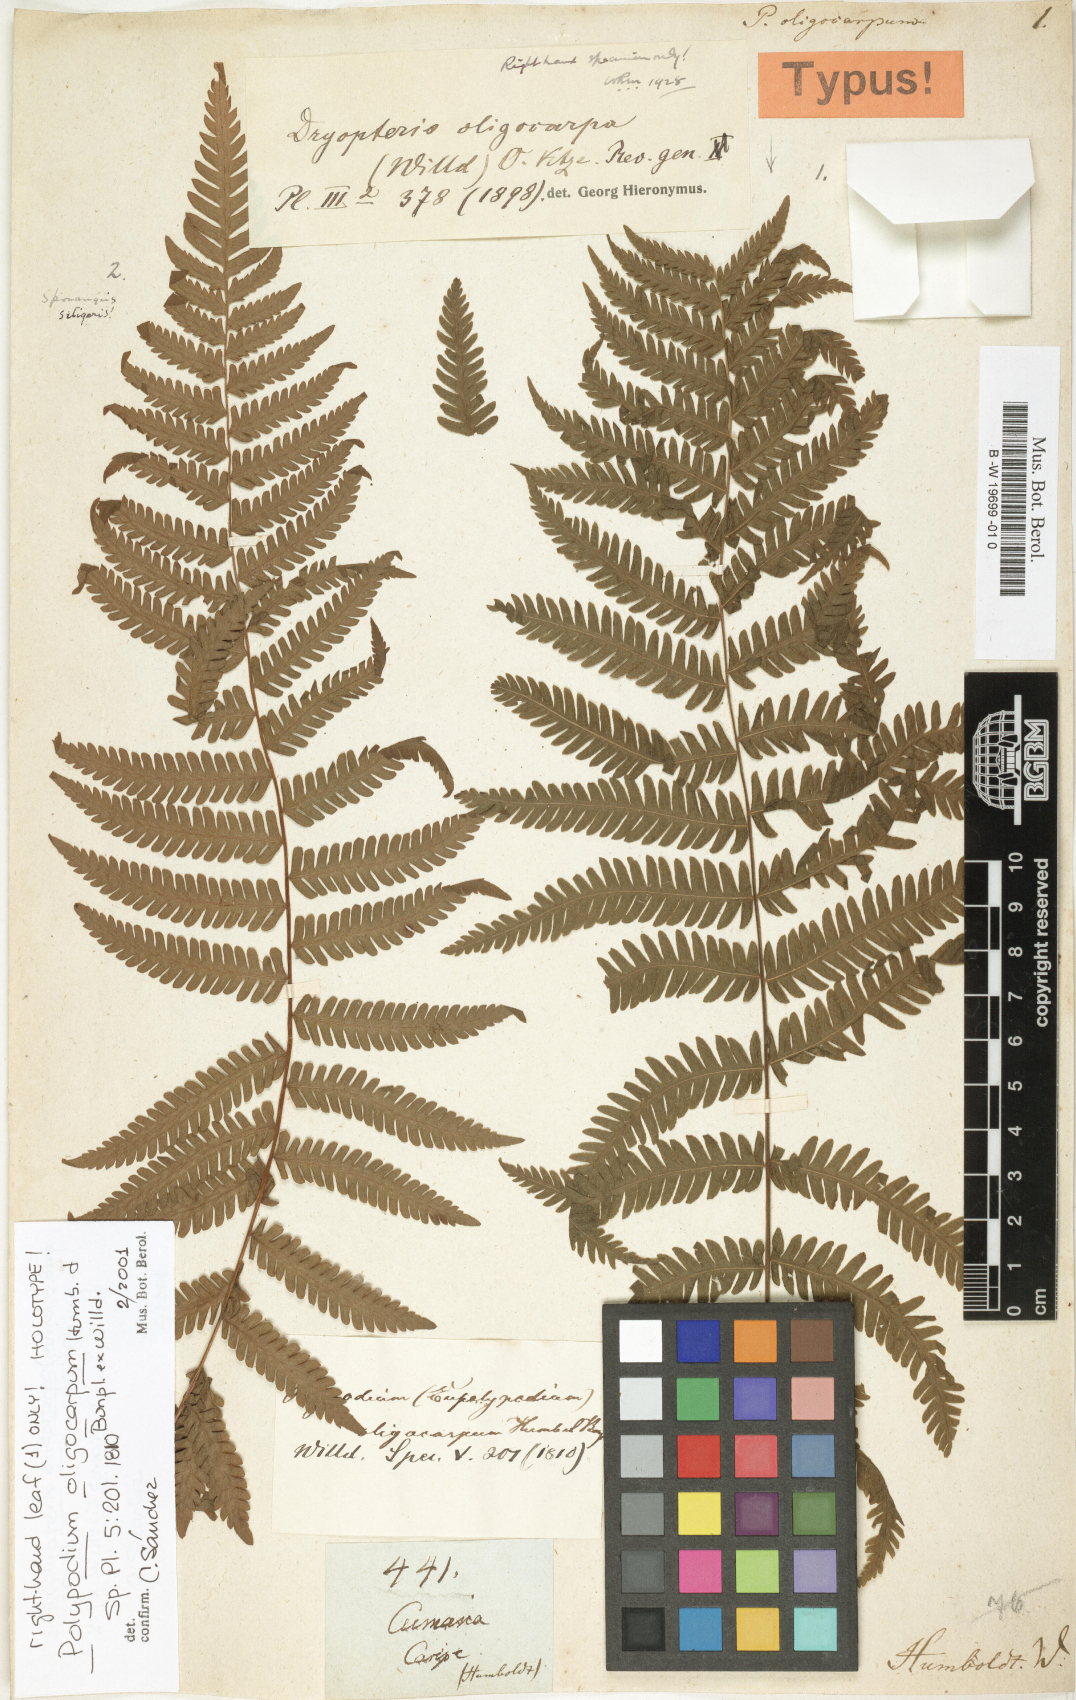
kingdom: Plantae
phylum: Tracheophyta
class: Polypodiopsida
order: Polypodiales
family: Thelypteridaceae
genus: Amauropelta
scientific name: Amauropelta oligocarpa
